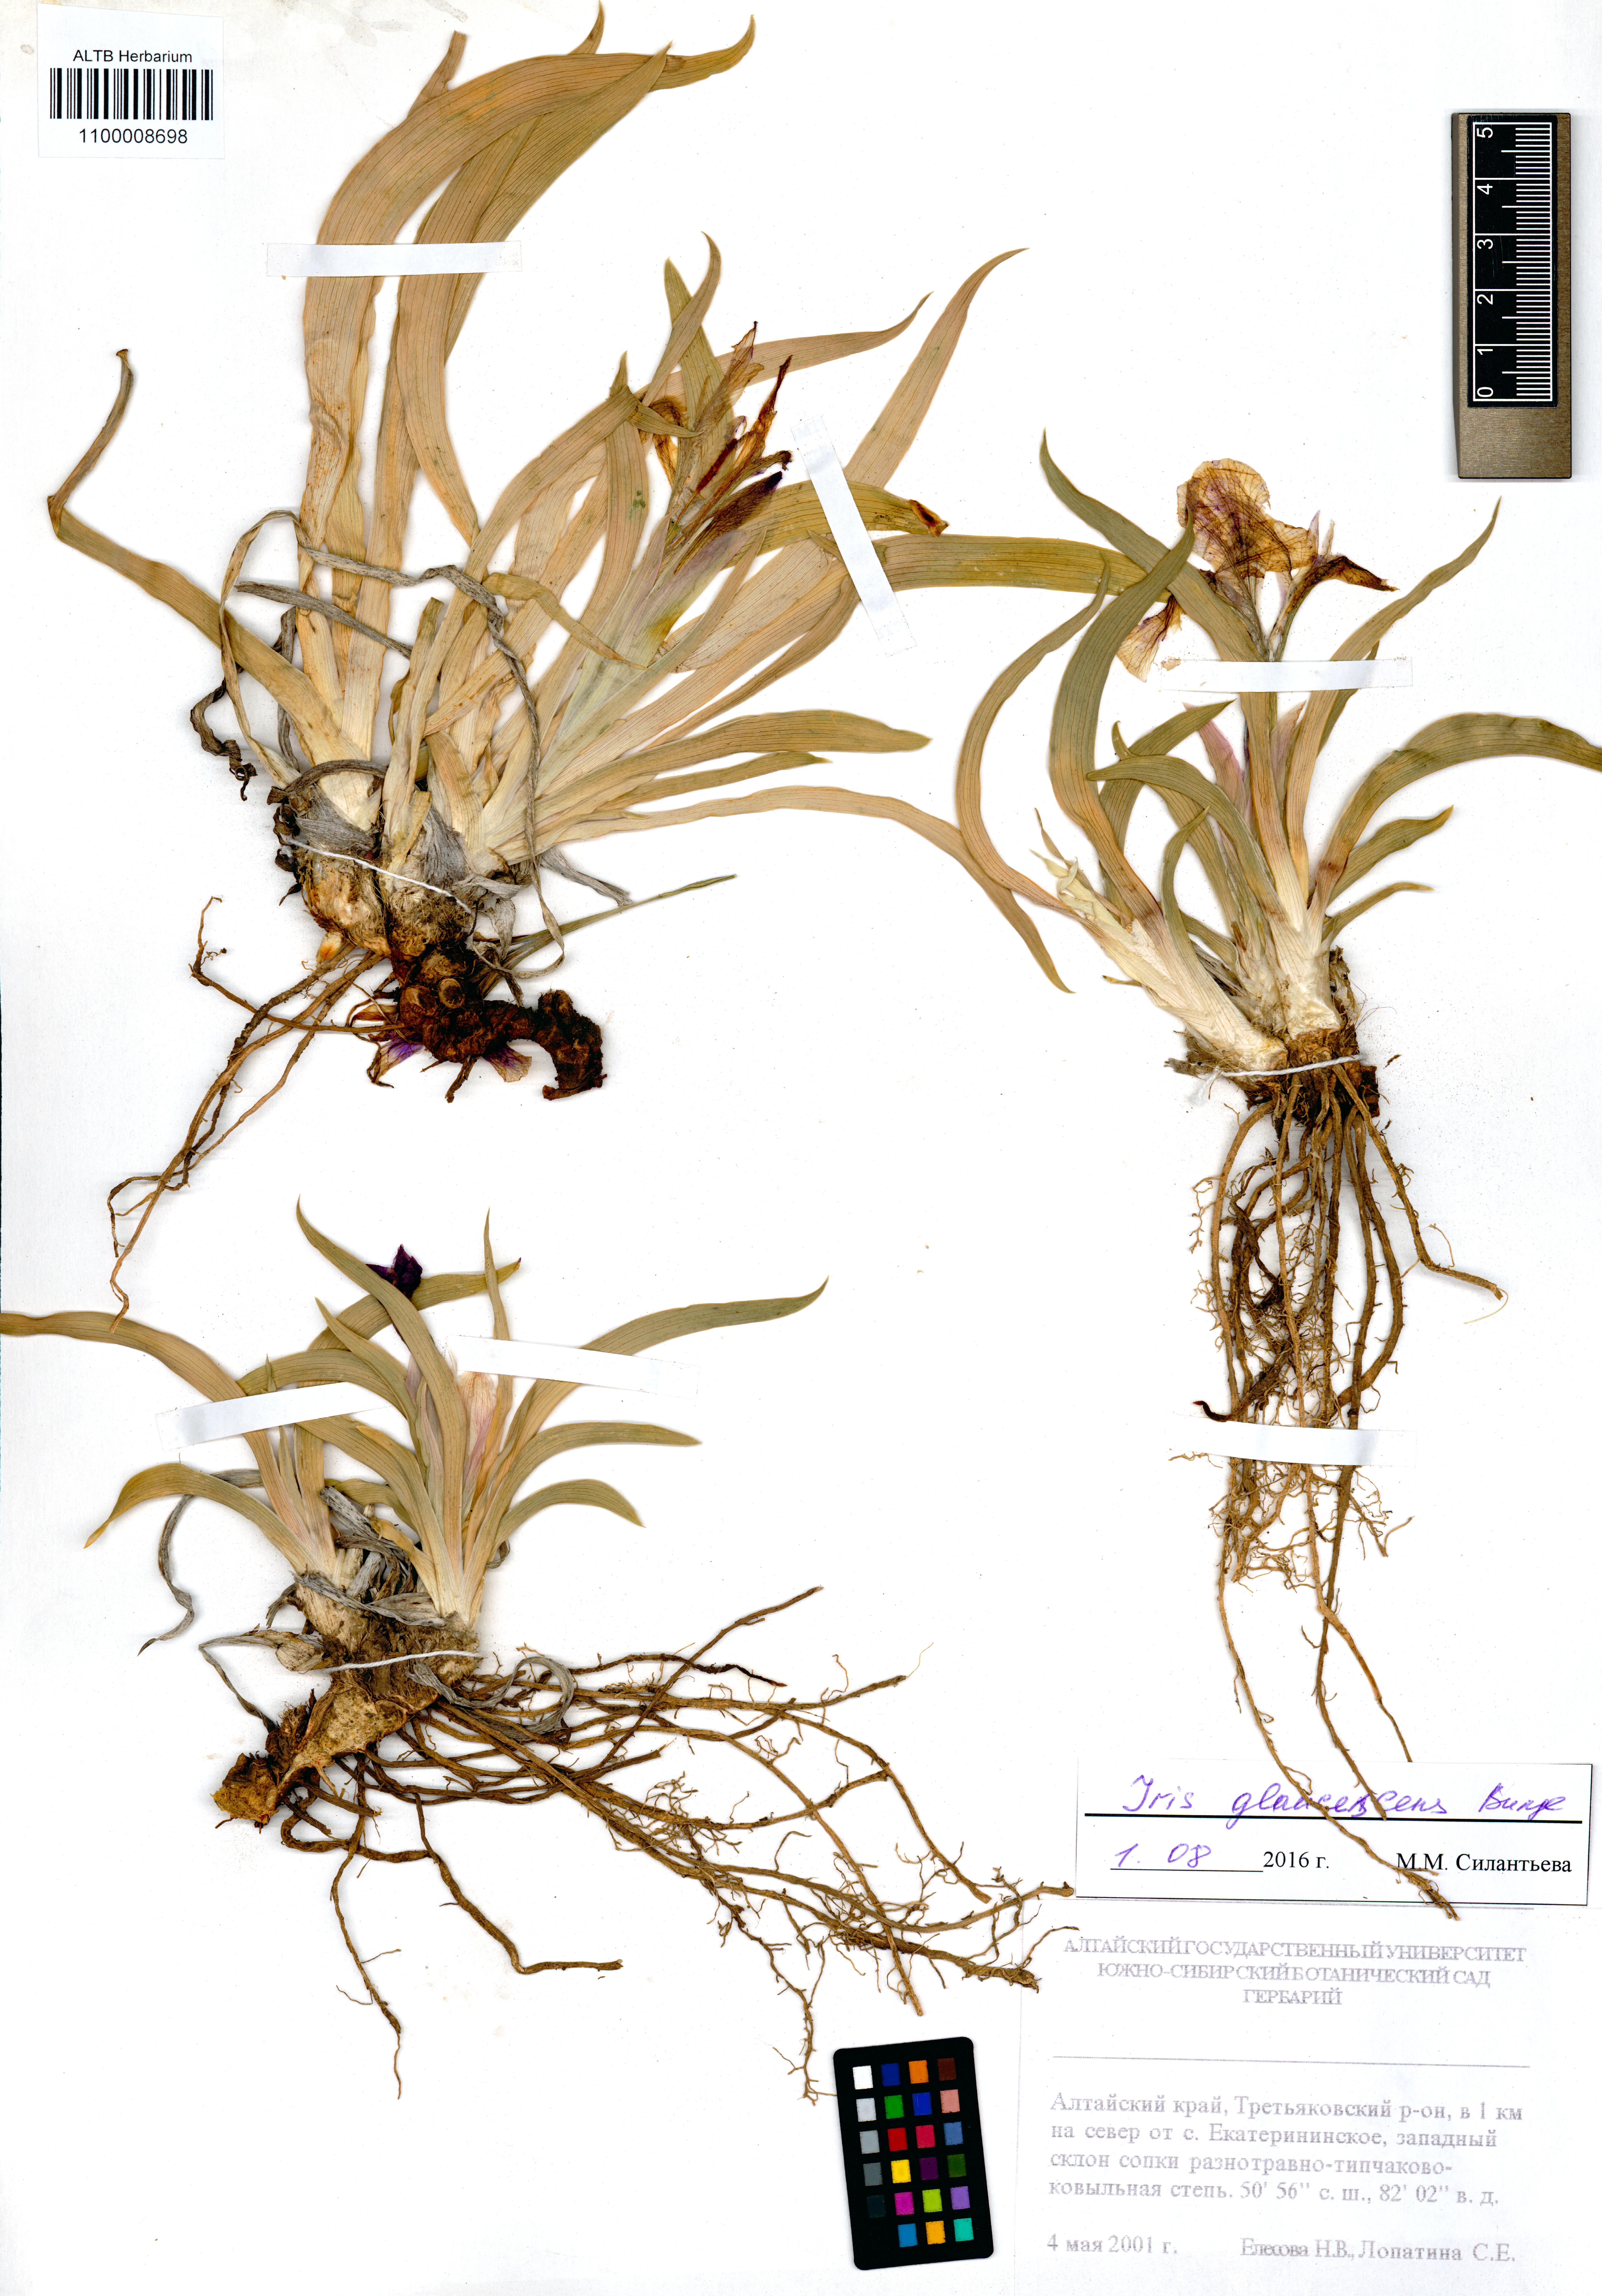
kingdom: Plantae
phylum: Tracheophyta
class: Liliopsida
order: Asparagales
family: Iridaceae
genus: Iris
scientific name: Iris glaucescens
